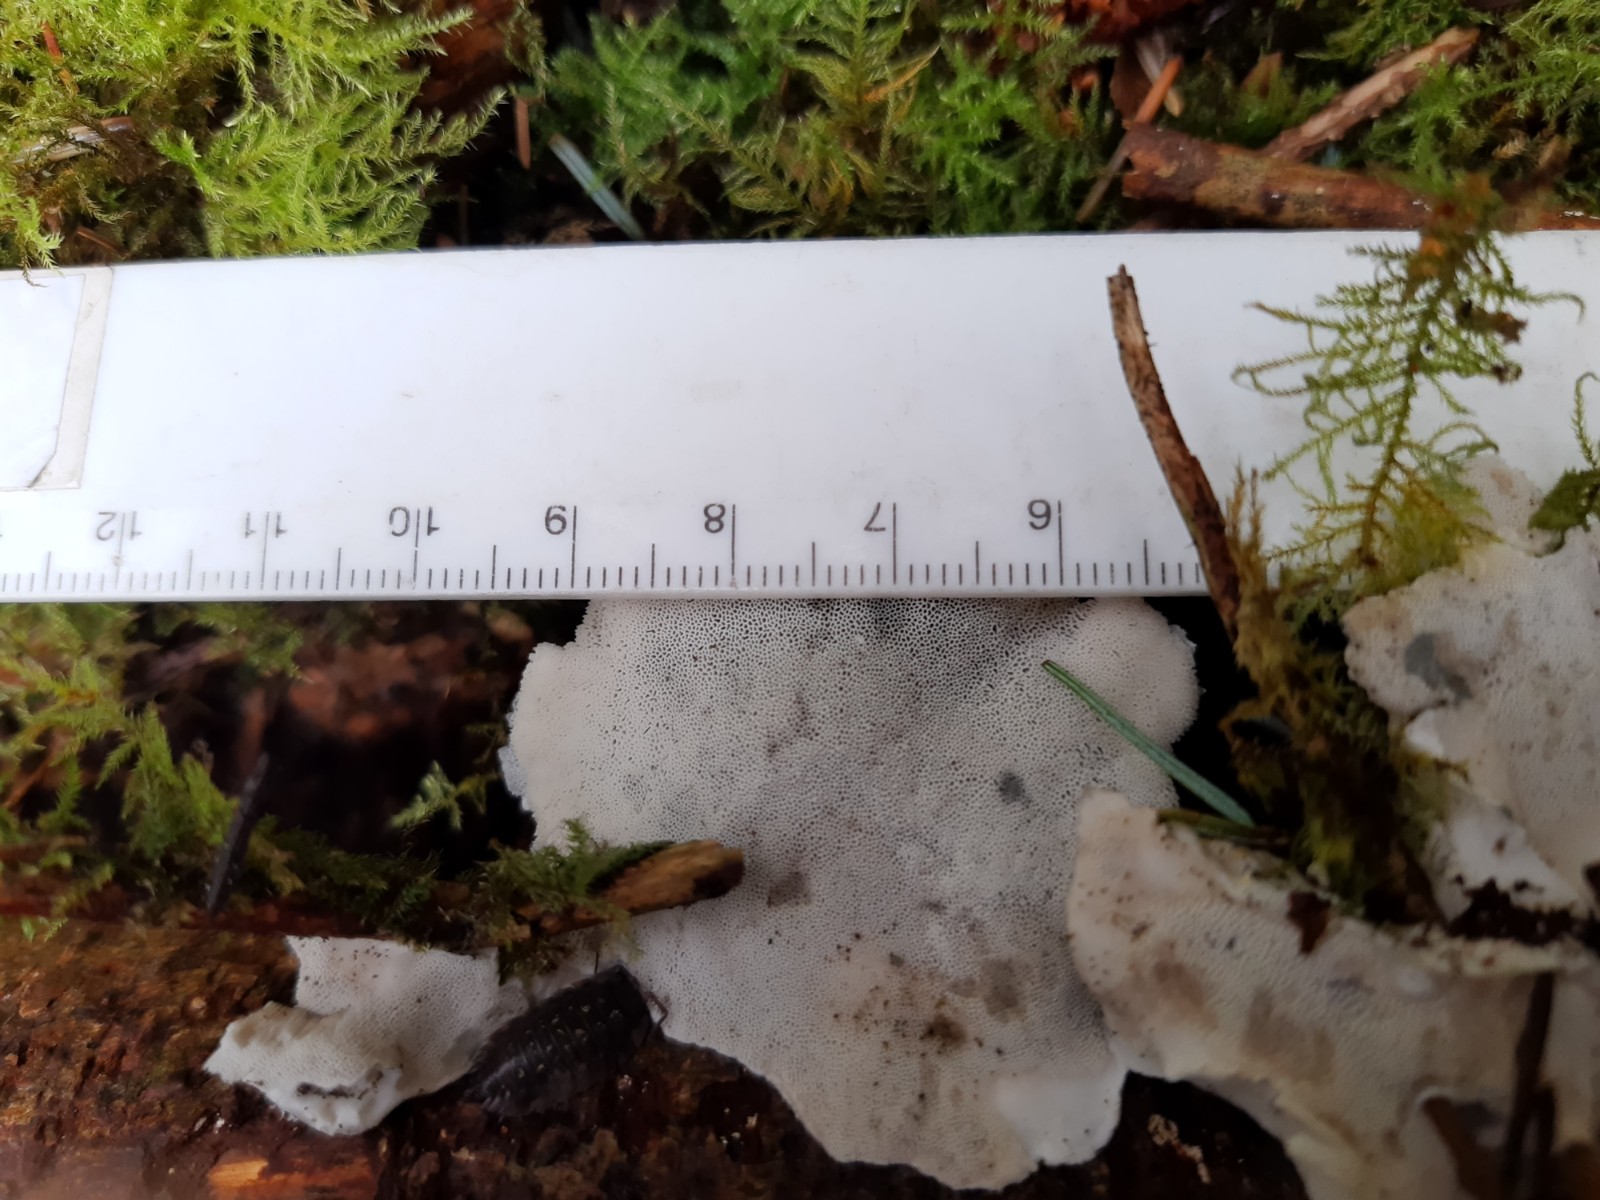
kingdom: Fungi
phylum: Basidiomycota
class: Agaricomycetes
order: Polyporales
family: Polyporaceae
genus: Cyanosporus
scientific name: Cyanosporus caesius
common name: blålig kødporesvamp
